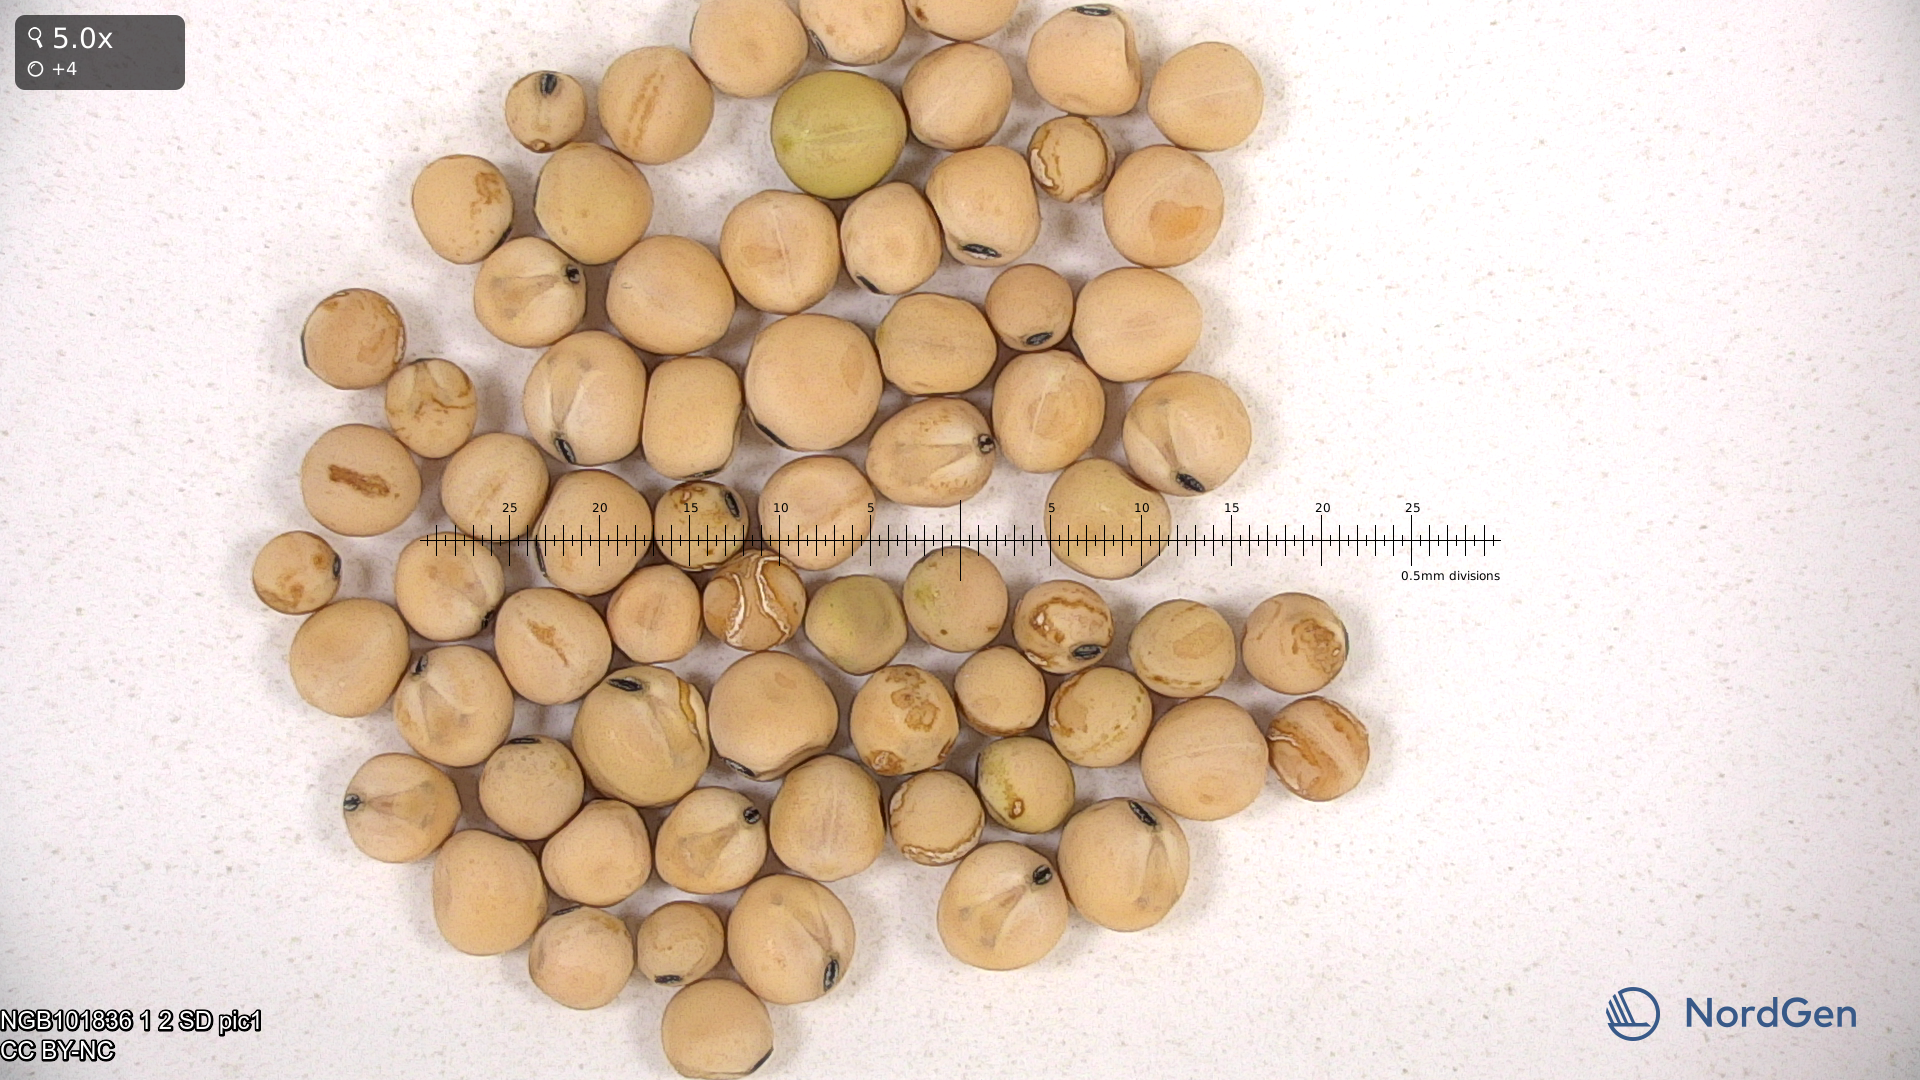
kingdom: Plantae
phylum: Tracheophyta
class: Magnoliopsida
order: Fabales
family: Fabaceae
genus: Lathyrus
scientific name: Lathyrus oleraceus
